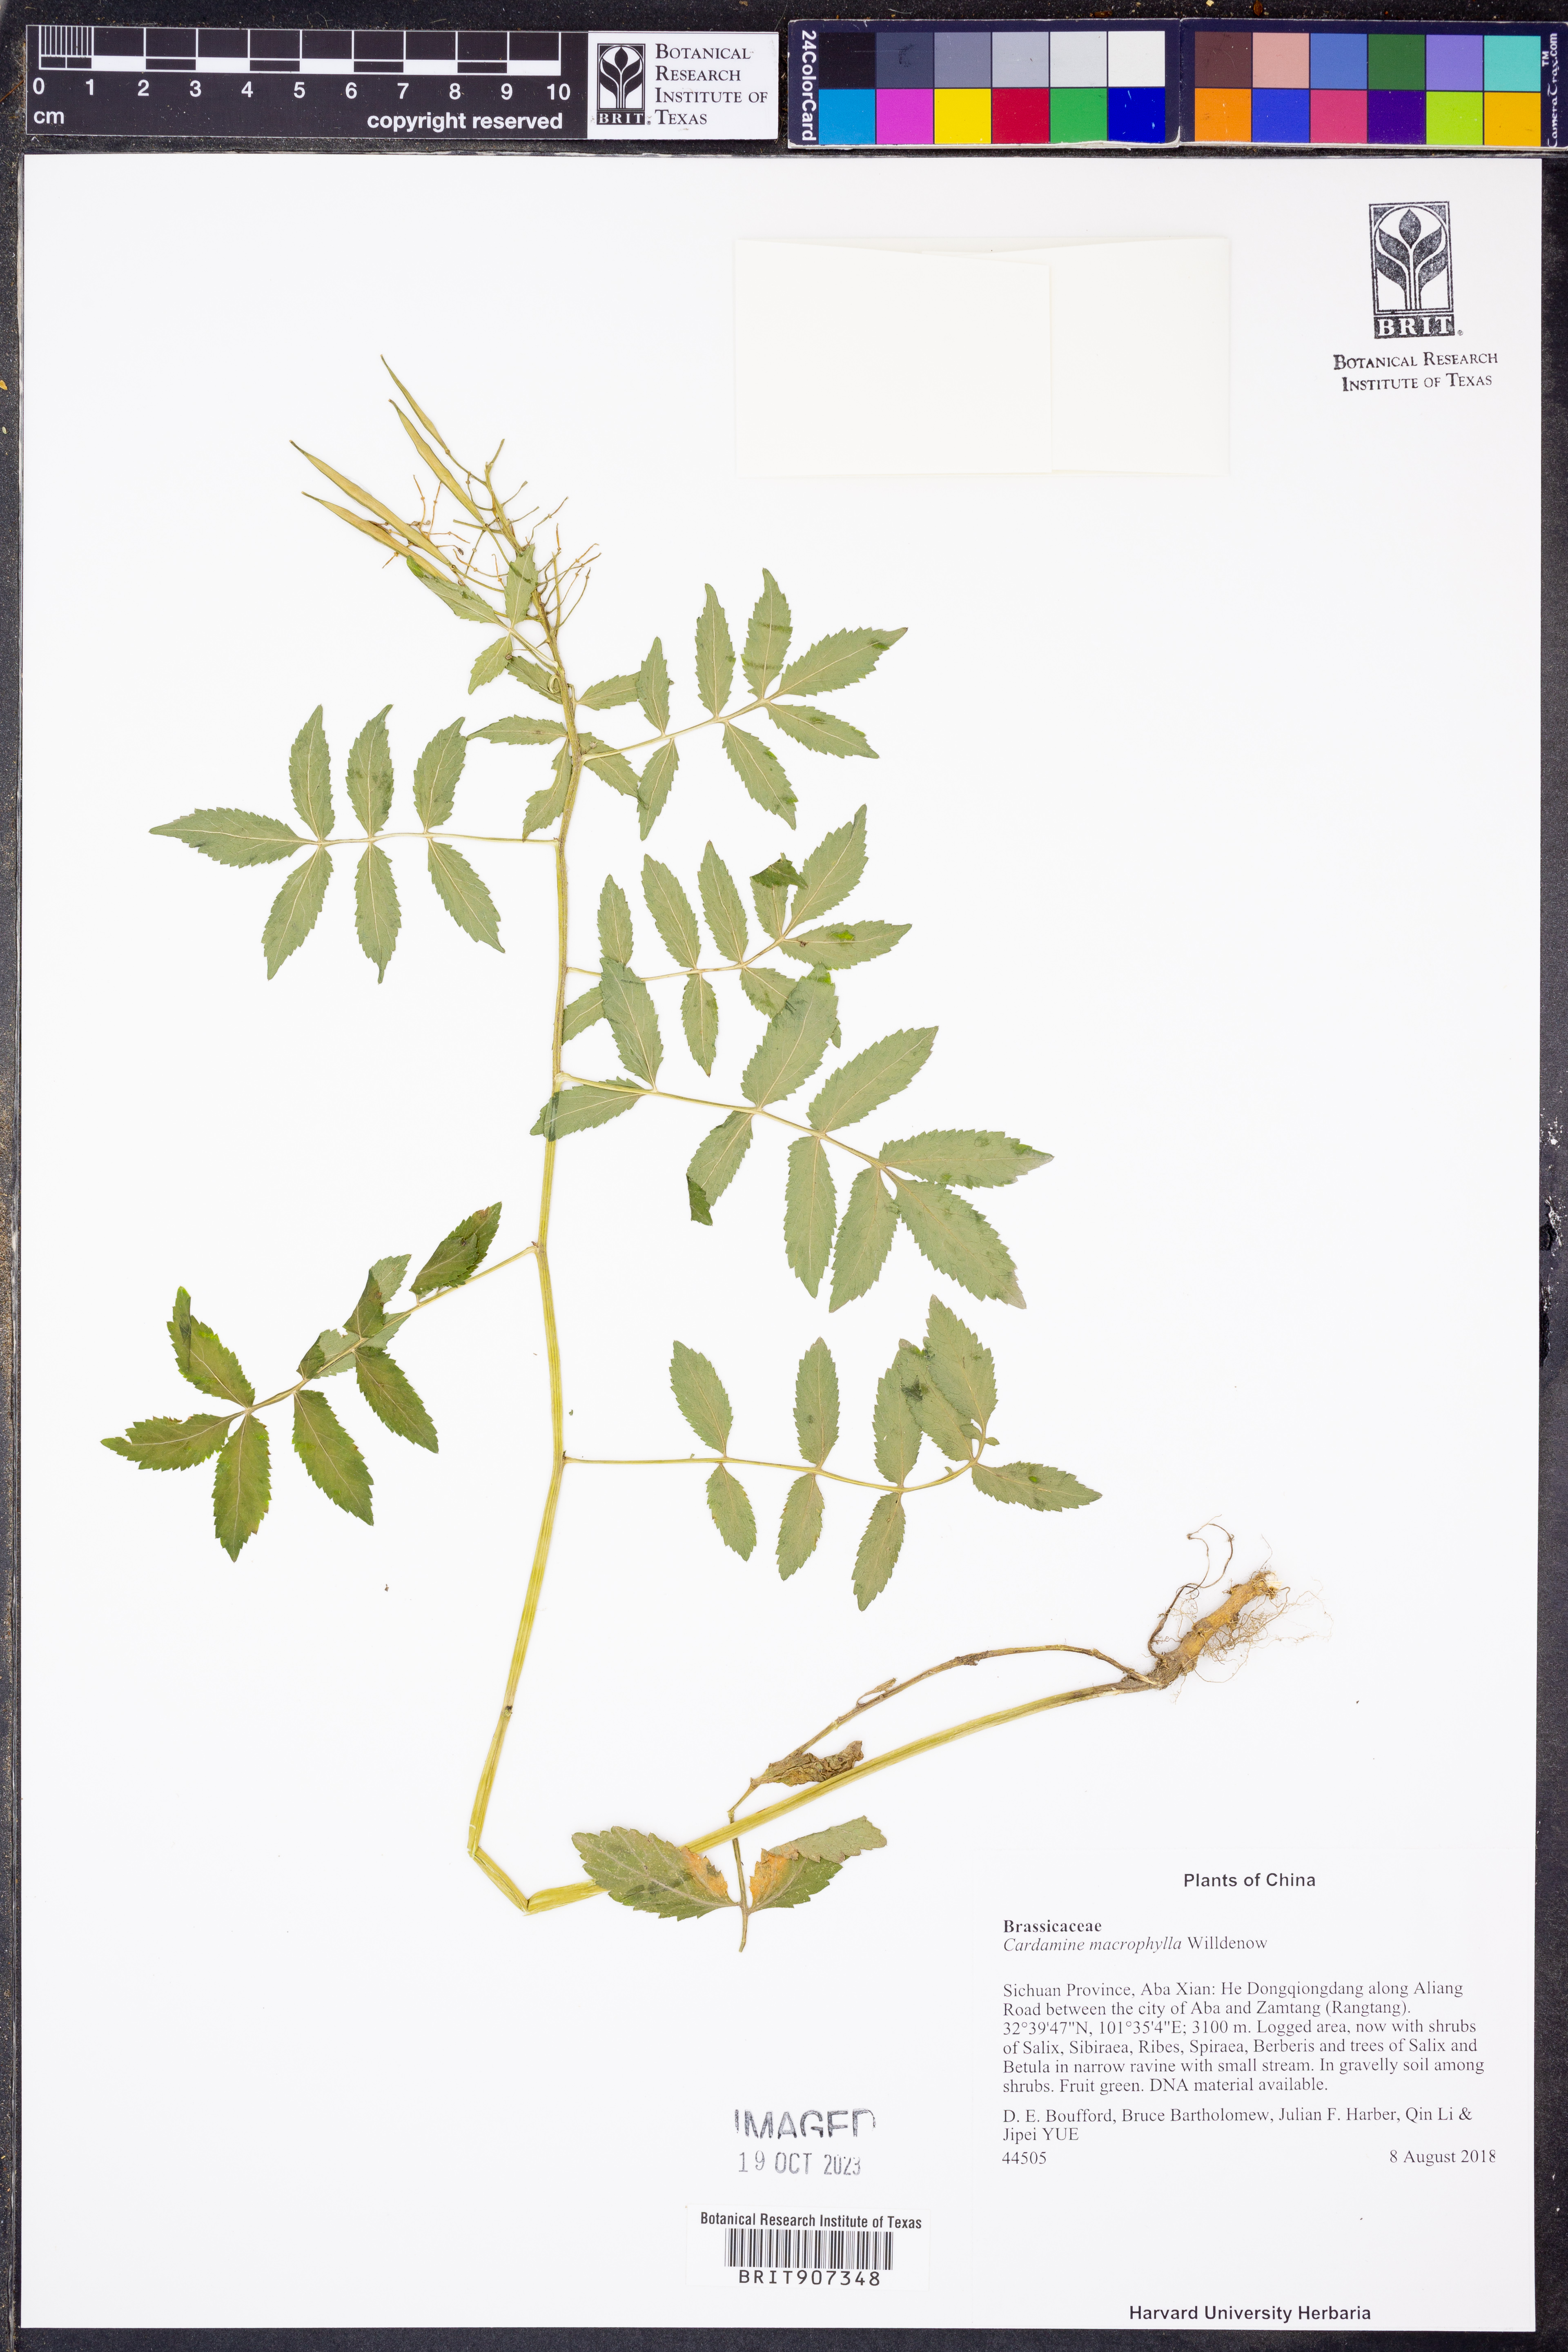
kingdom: Plantae
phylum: Tracheophyta
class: Magnoliopsida
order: Brassicales
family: Brassicaceae
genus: Cardamine
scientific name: Cardamine macrophylla
